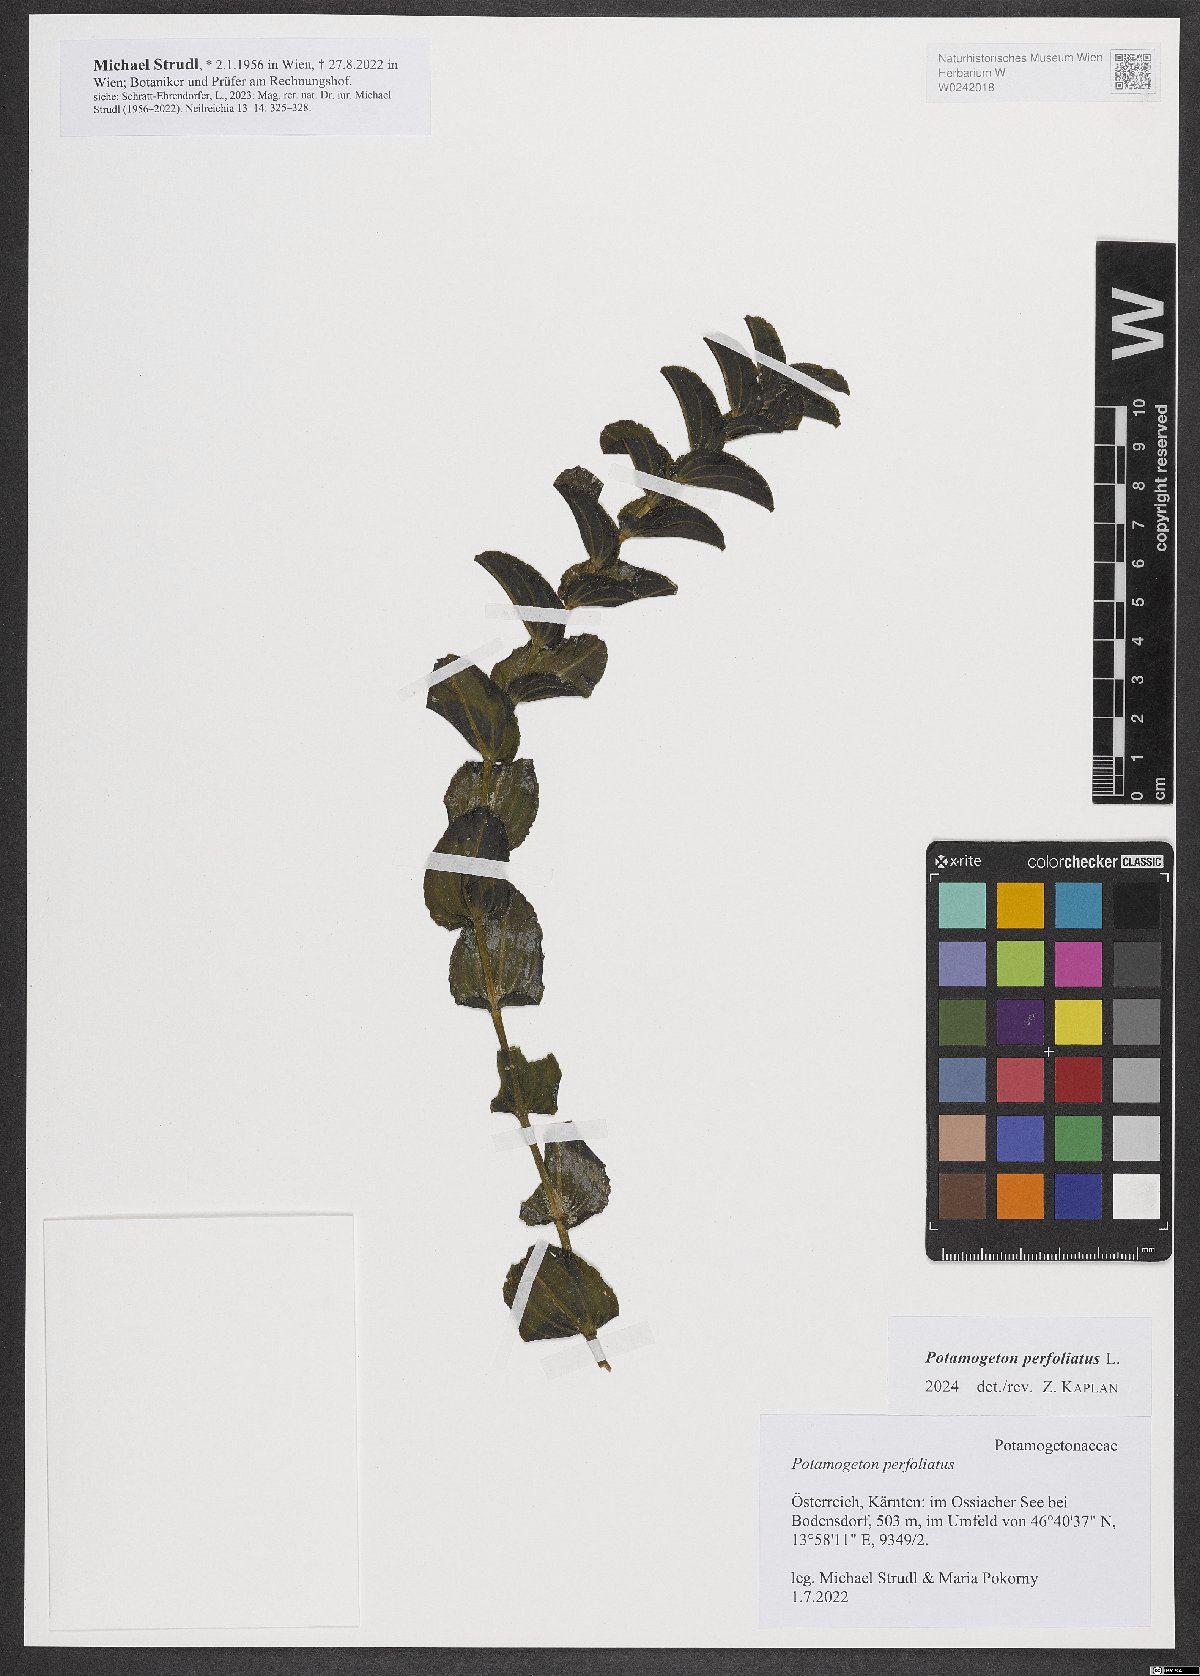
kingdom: Plantae
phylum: Tracheophyta
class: Liliopsida
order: Alismatales
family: Potamogetonaceae
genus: Potamogeton
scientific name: Potamogeton perfoliatus
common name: Perfoliate pondweed
